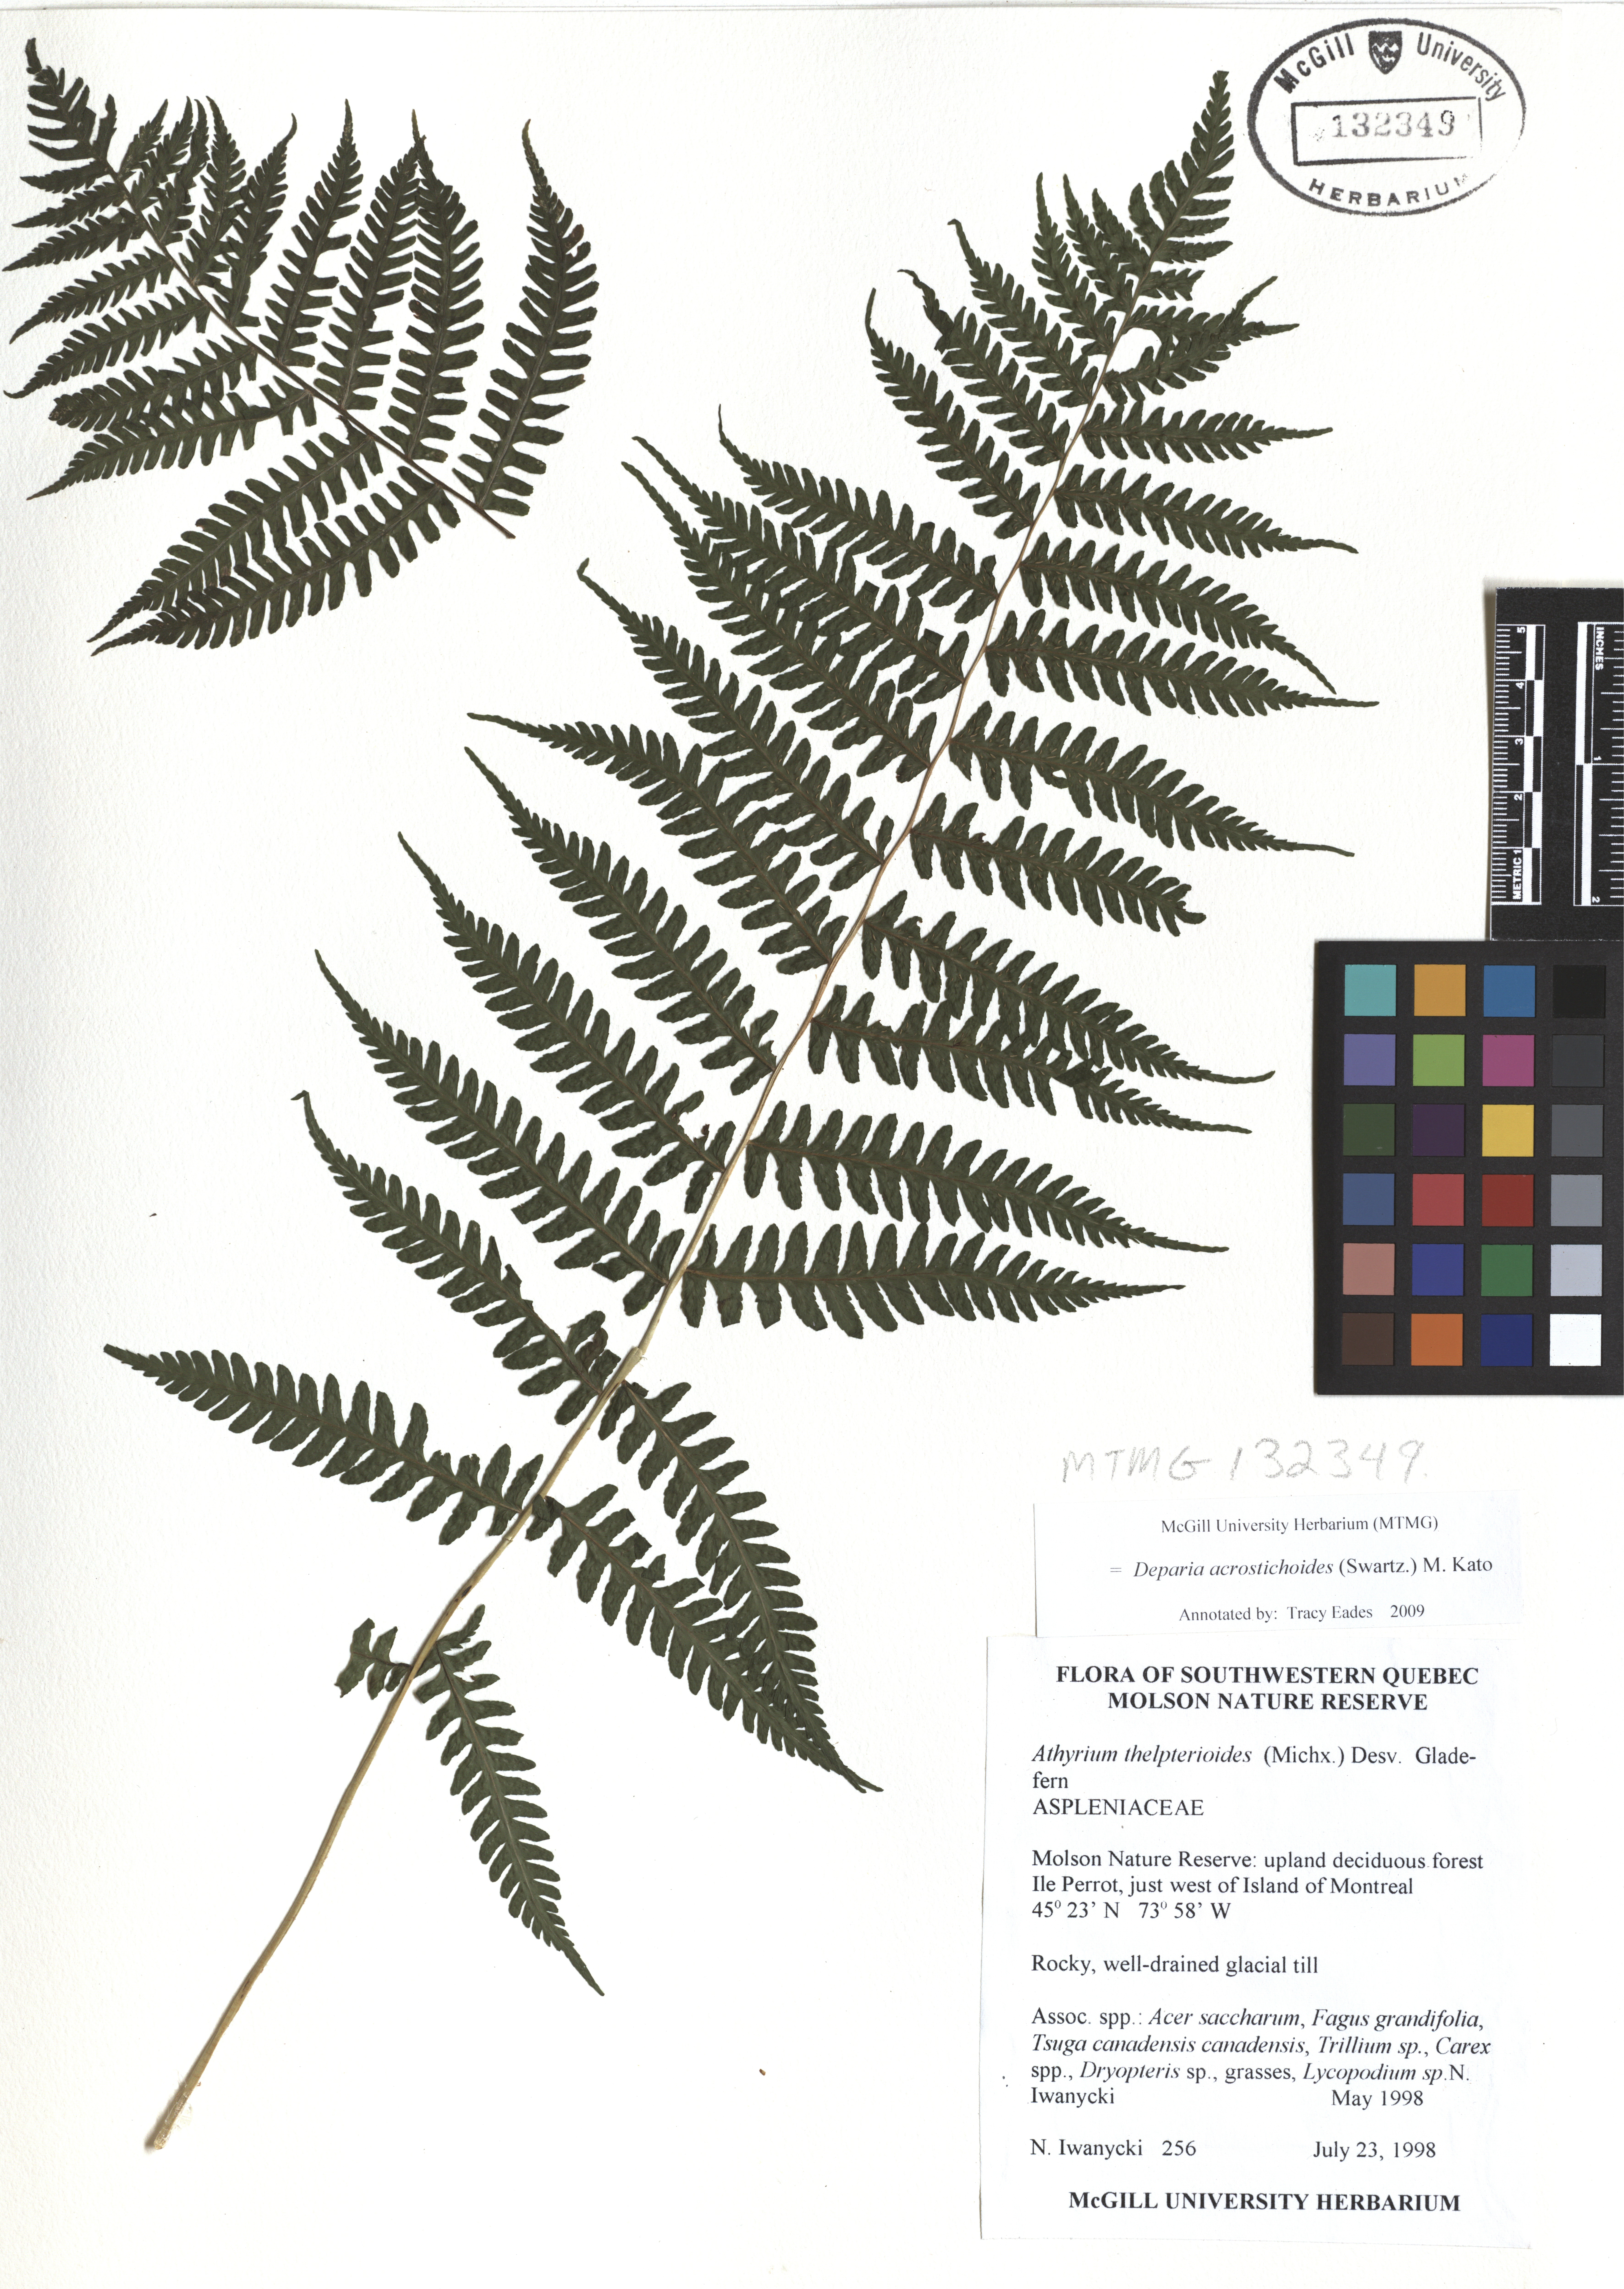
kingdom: Plantae
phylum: Tracheophyta
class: Polypodiopsida
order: Polypodiales
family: Athyriaceae
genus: Deparia
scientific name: Deparia acrostichoides
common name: Silver false spleenwort
